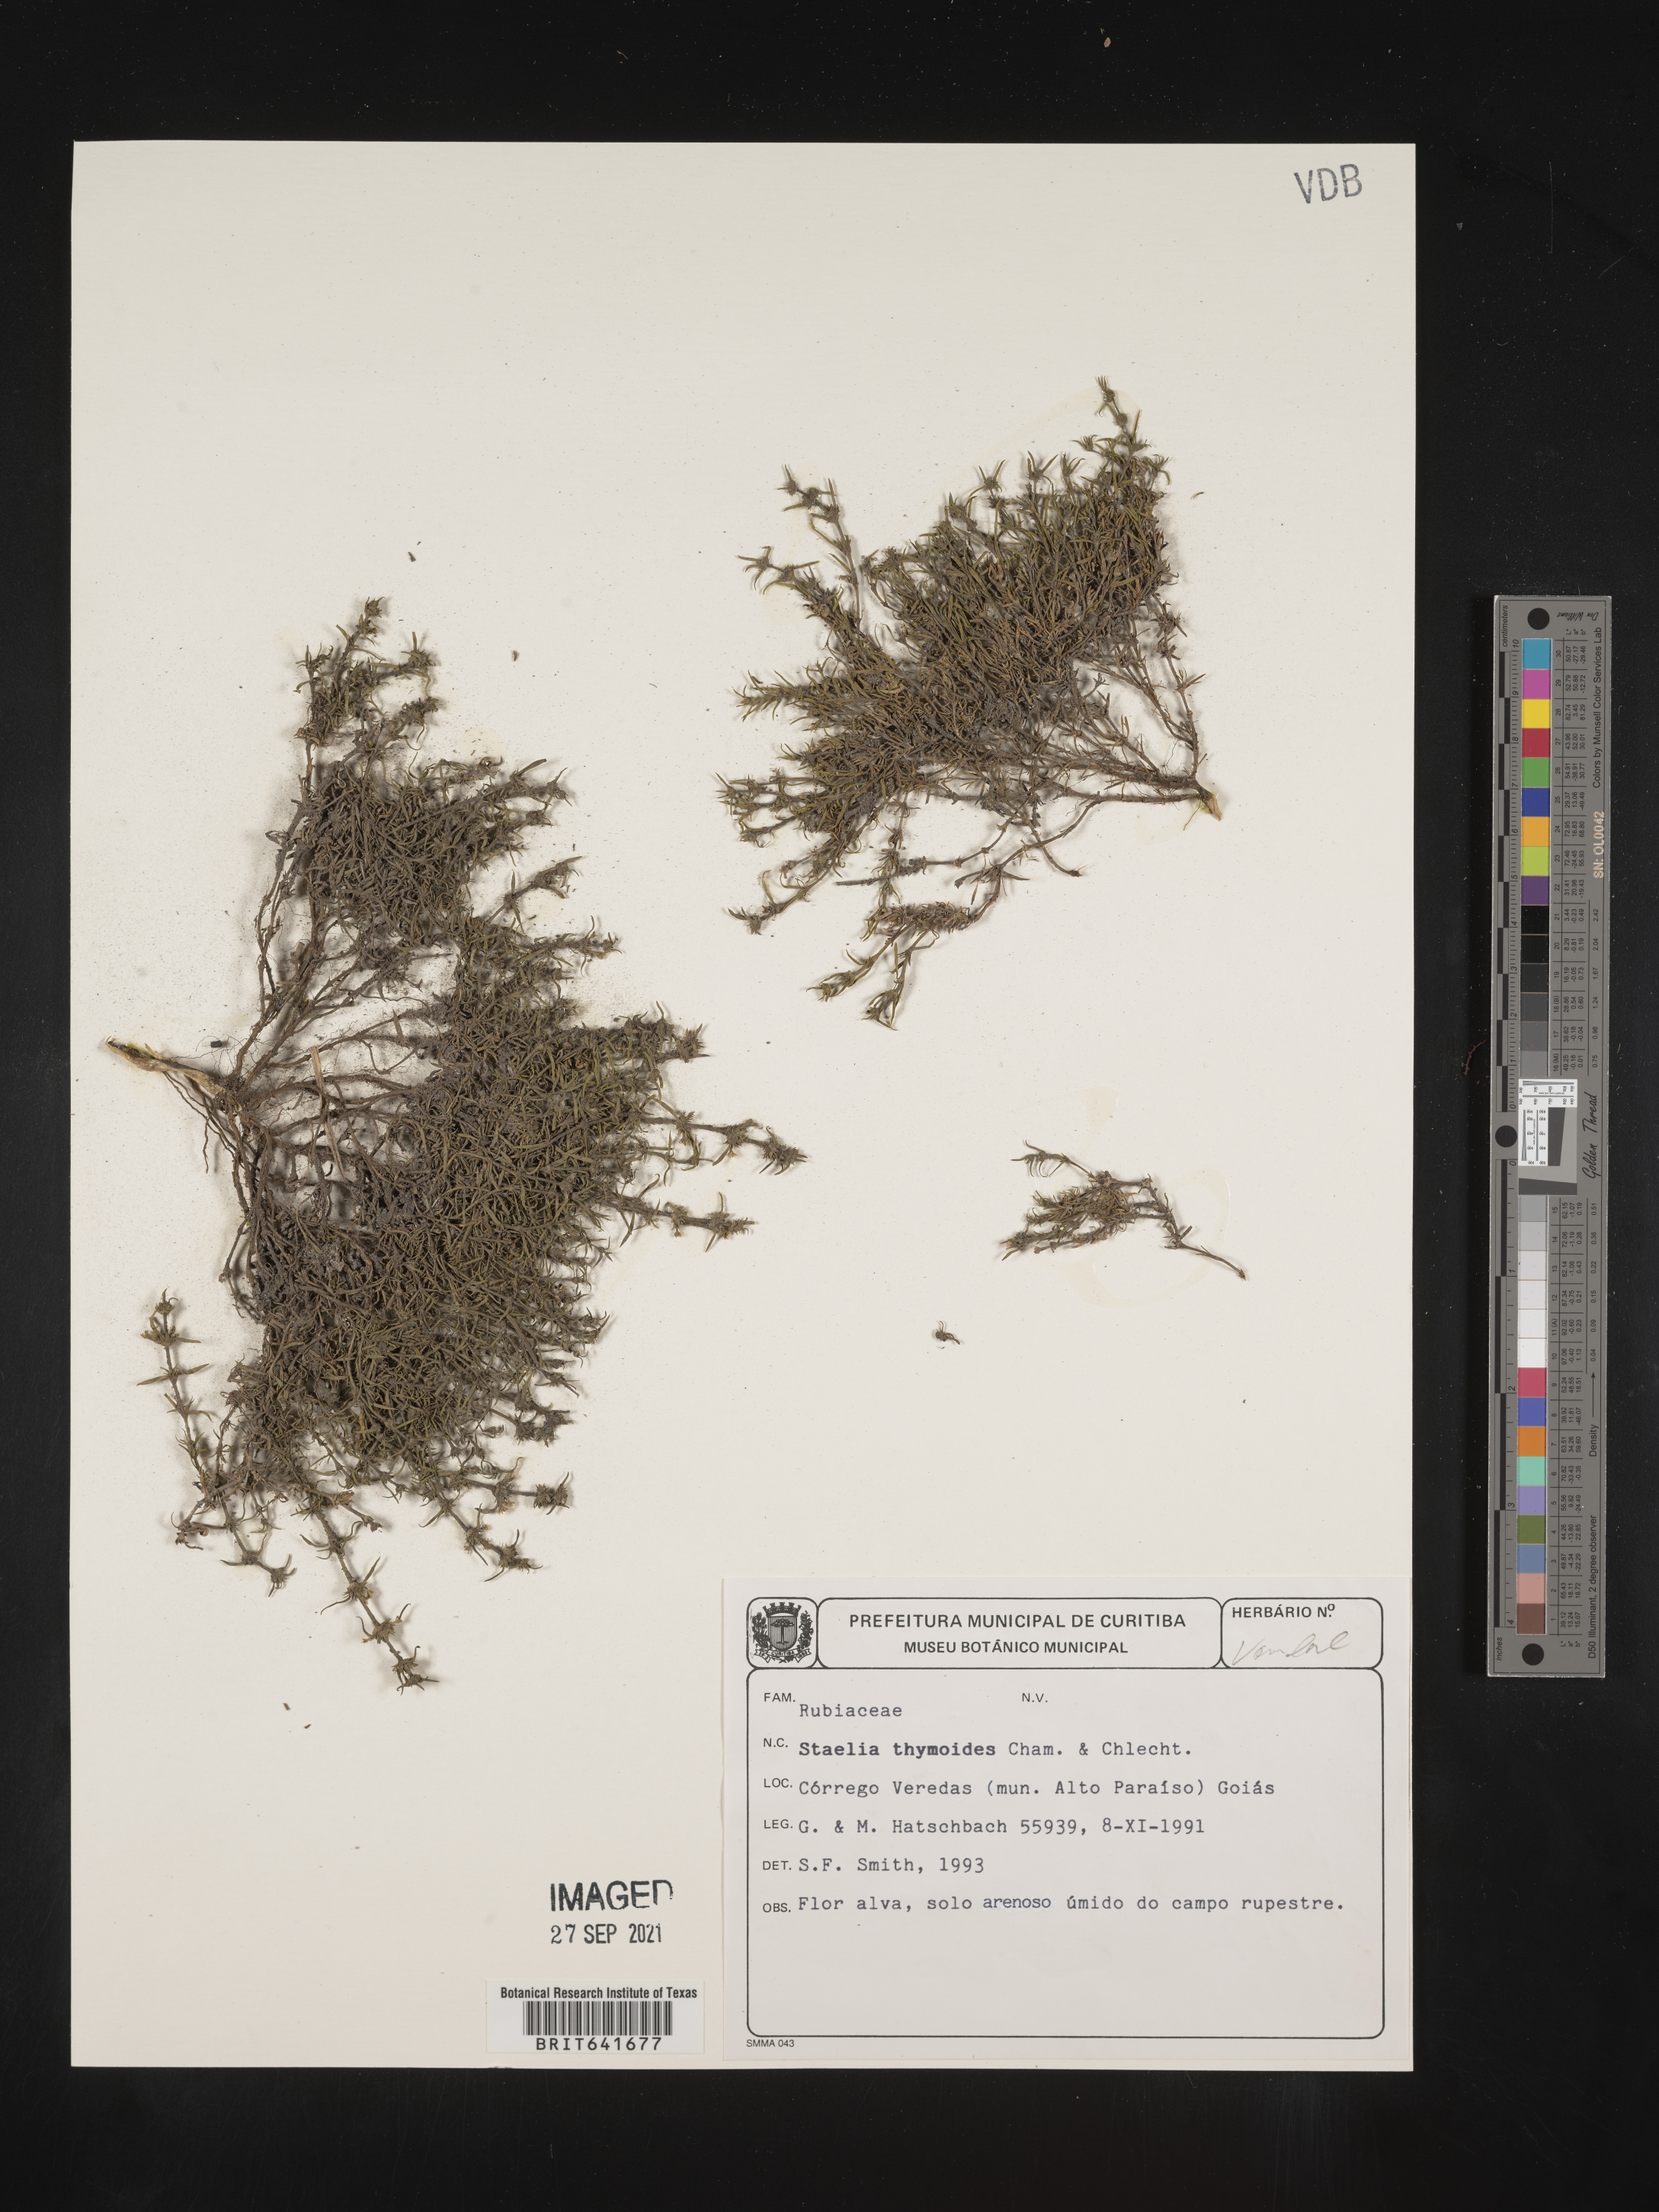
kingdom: Plantae
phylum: Tracheophyta
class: Magnoliopsida
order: Gentianales
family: Rubiaceae
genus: Staelia
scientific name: Staelia
